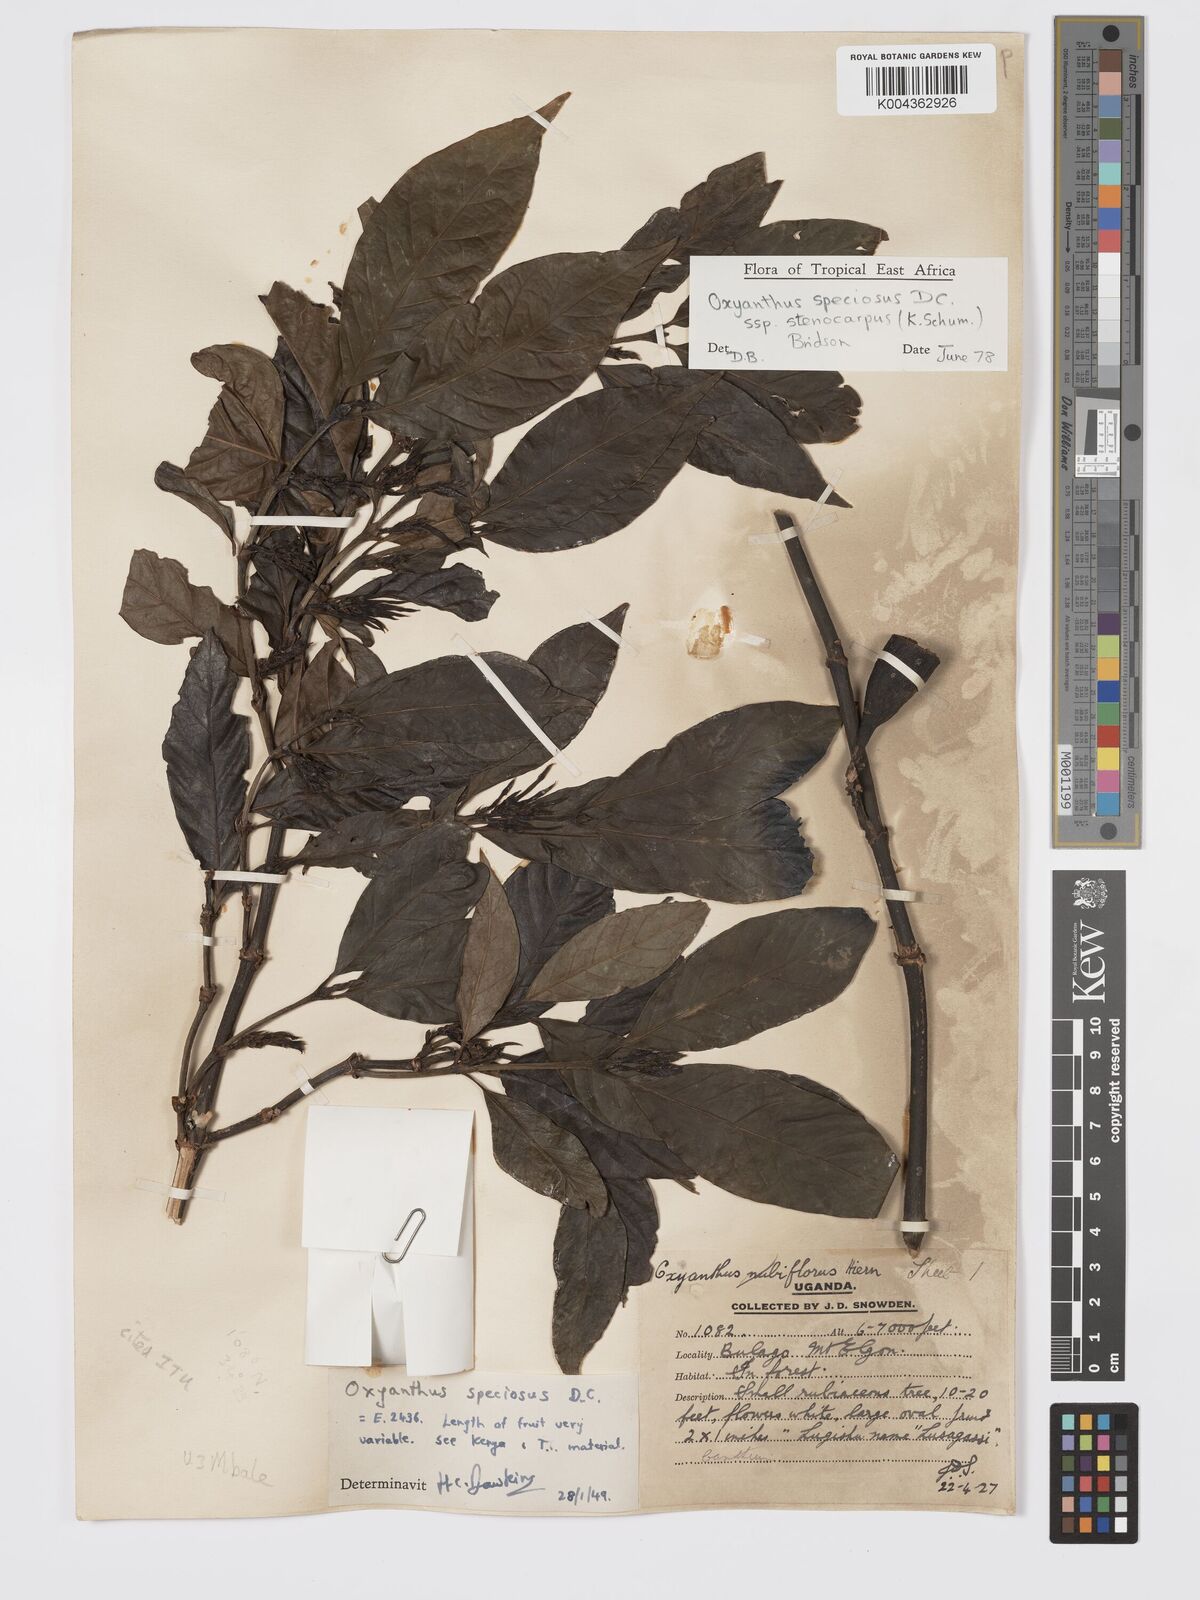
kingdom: Plantae
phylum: Tracheophyta
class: Magnoliopsida
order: Gentianales
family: Rubiaceae
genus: Oxyanthus
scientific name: Oxyanthus
